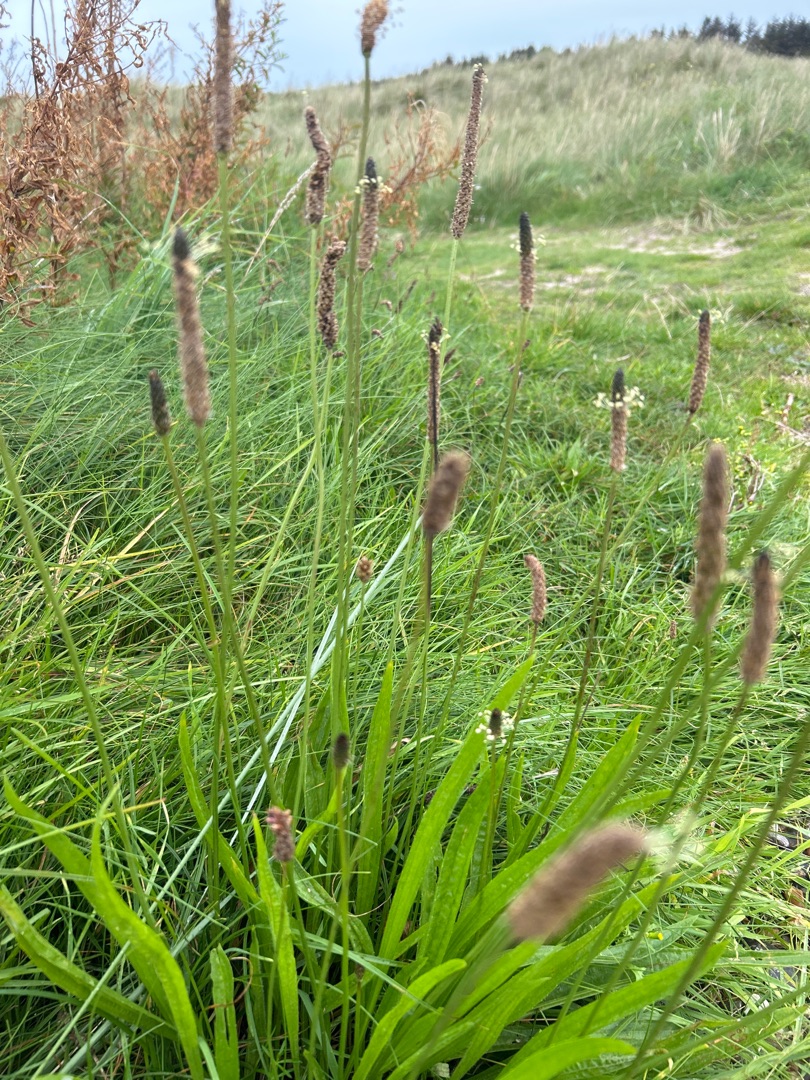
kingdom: Plantae
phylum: Tracheophyta
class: Magnoliopsida
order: Lamiales
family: Plantaginaceae
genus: Plantago
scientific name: Plantago lanceolata
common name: Lancet-vejbred
